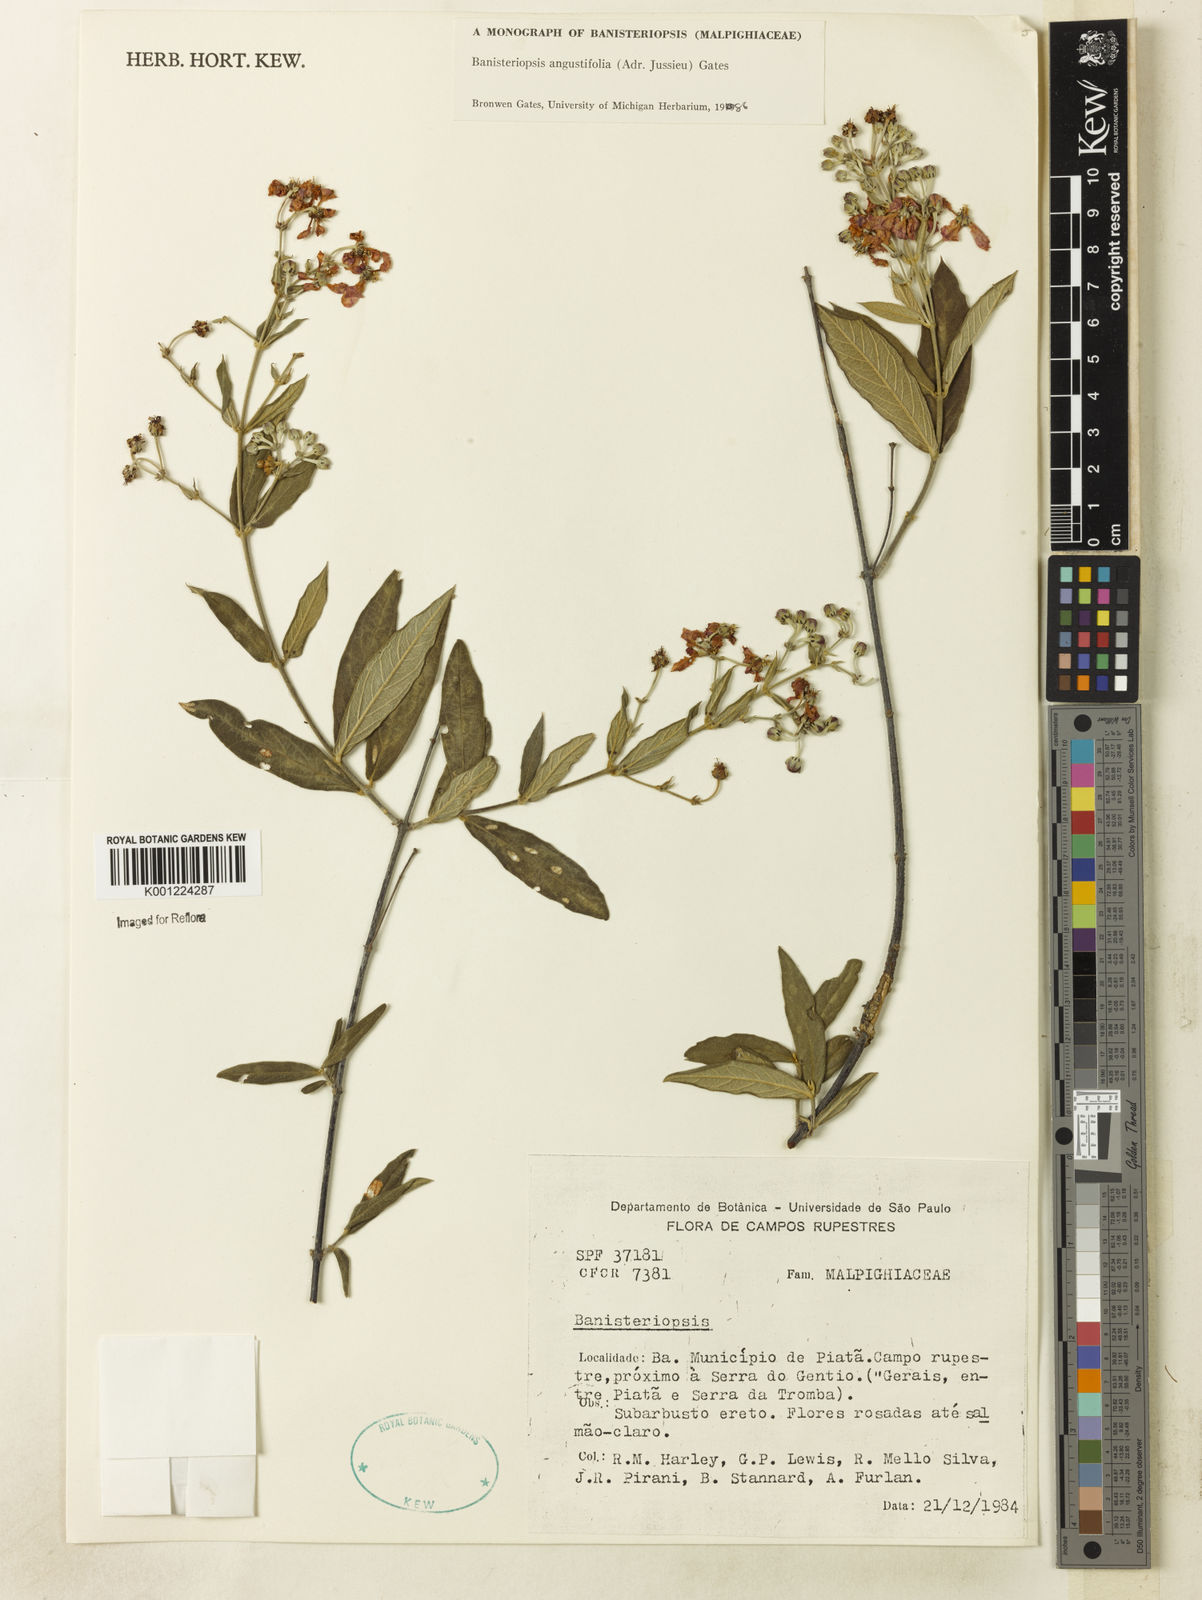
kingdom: Plantae
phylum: Tracheophyta
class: Magnoliopsida
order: Malpighiales
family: Malpighiaceae
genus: Banisteriopsis
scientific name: Banisteriopsis angustifolia
